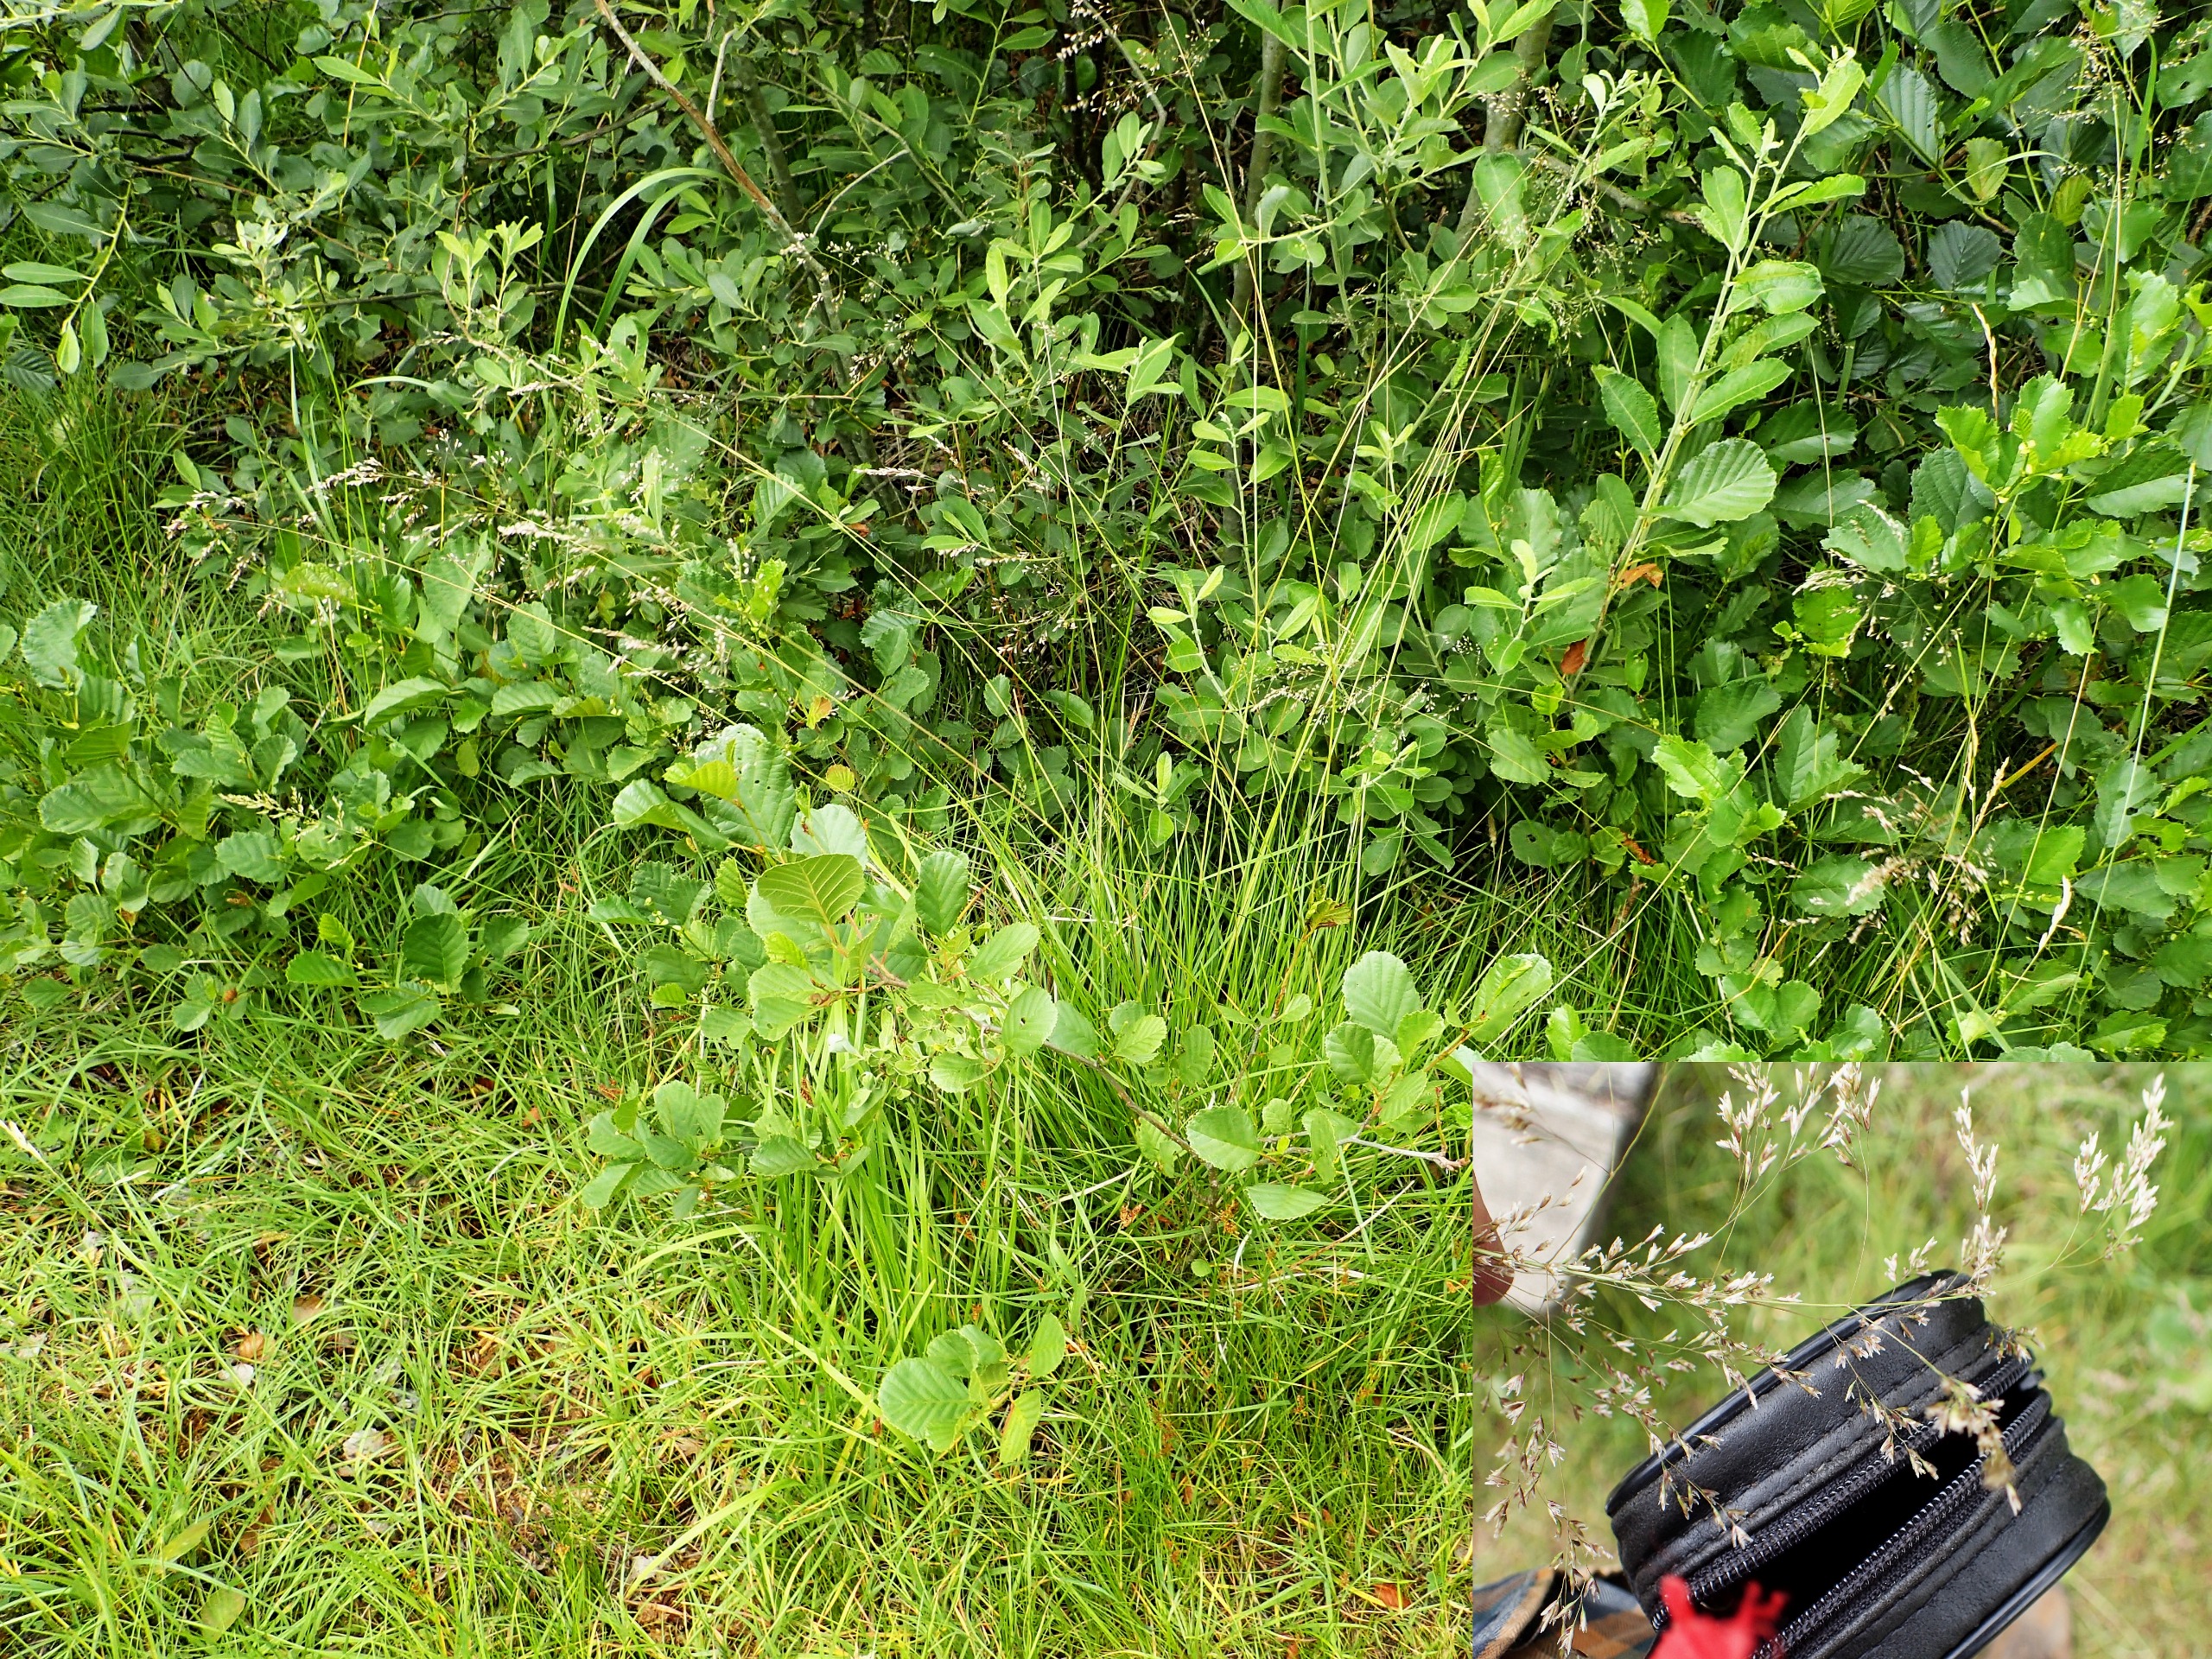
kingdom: Plantae
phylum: Tracheophyta
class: Liliopsida
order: Poales
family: Poaceae
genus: Deschampsia
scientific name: Deschampsia cespitosa
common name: Mose-bunke
